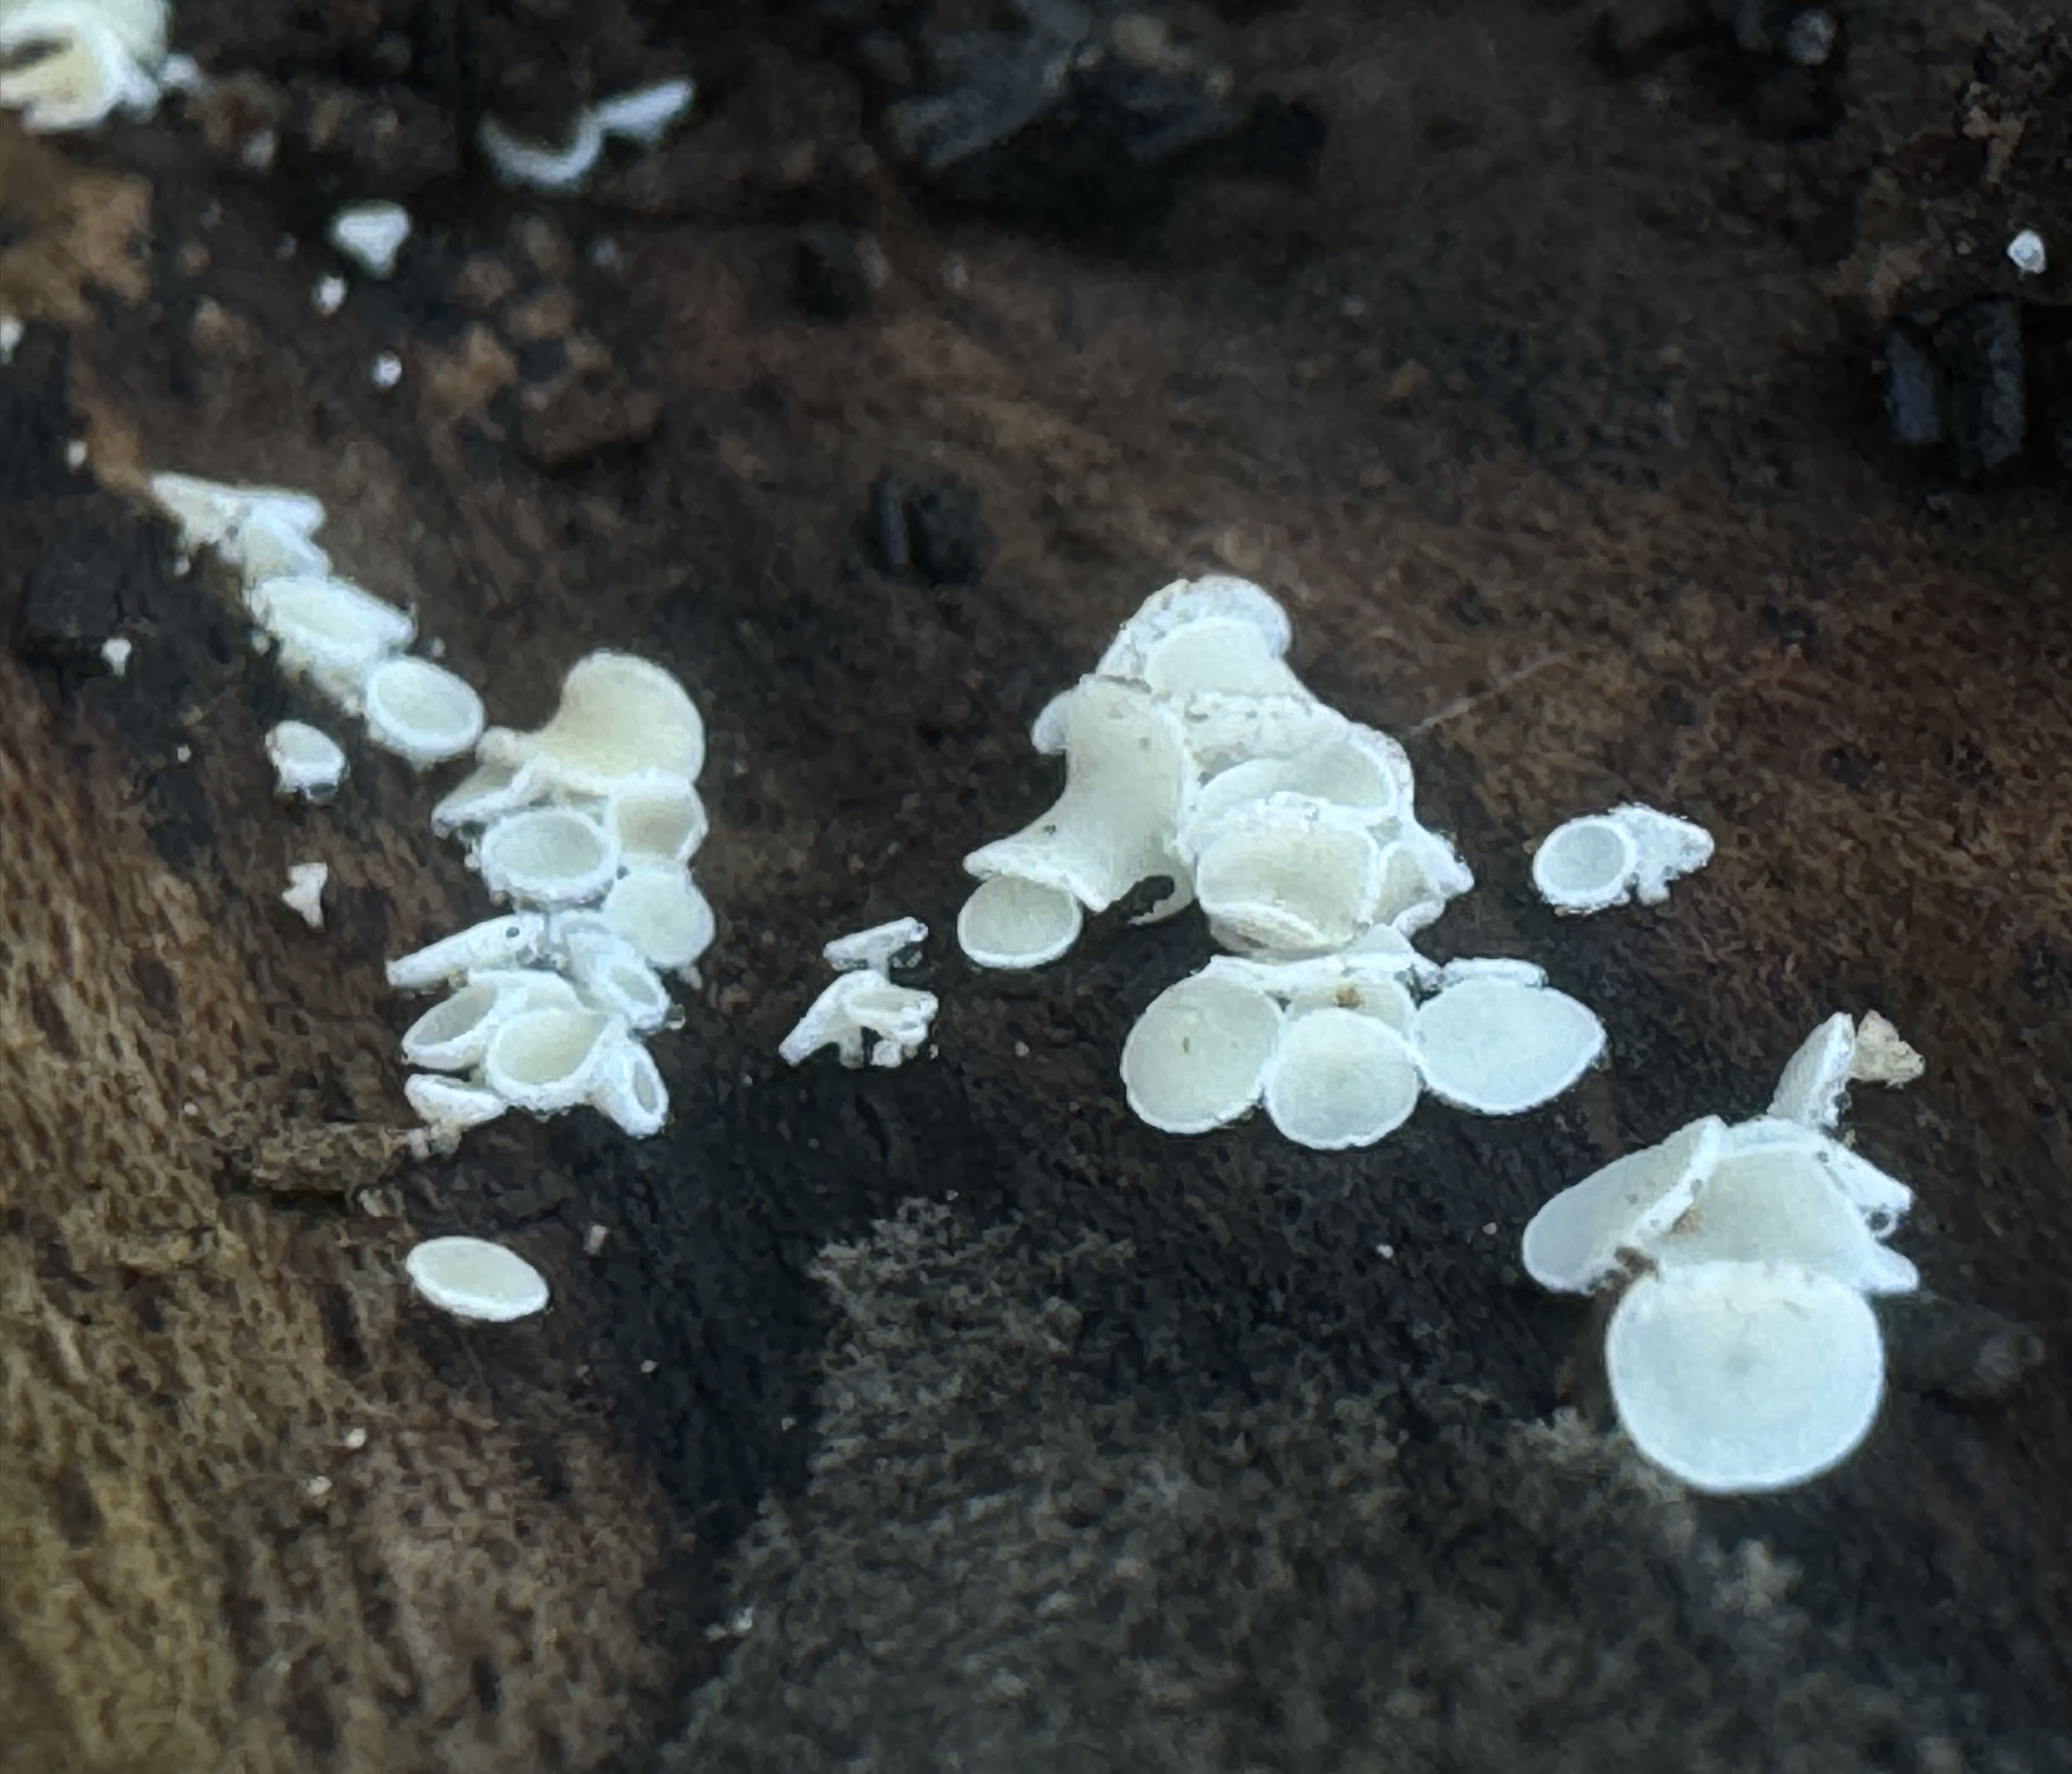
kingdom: Fungi
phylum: Ascomycota
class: Leotiomycetes
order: Helotiales
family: Lachnaceae
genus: Lachnum
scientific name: Lachnum
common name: frynseskive
